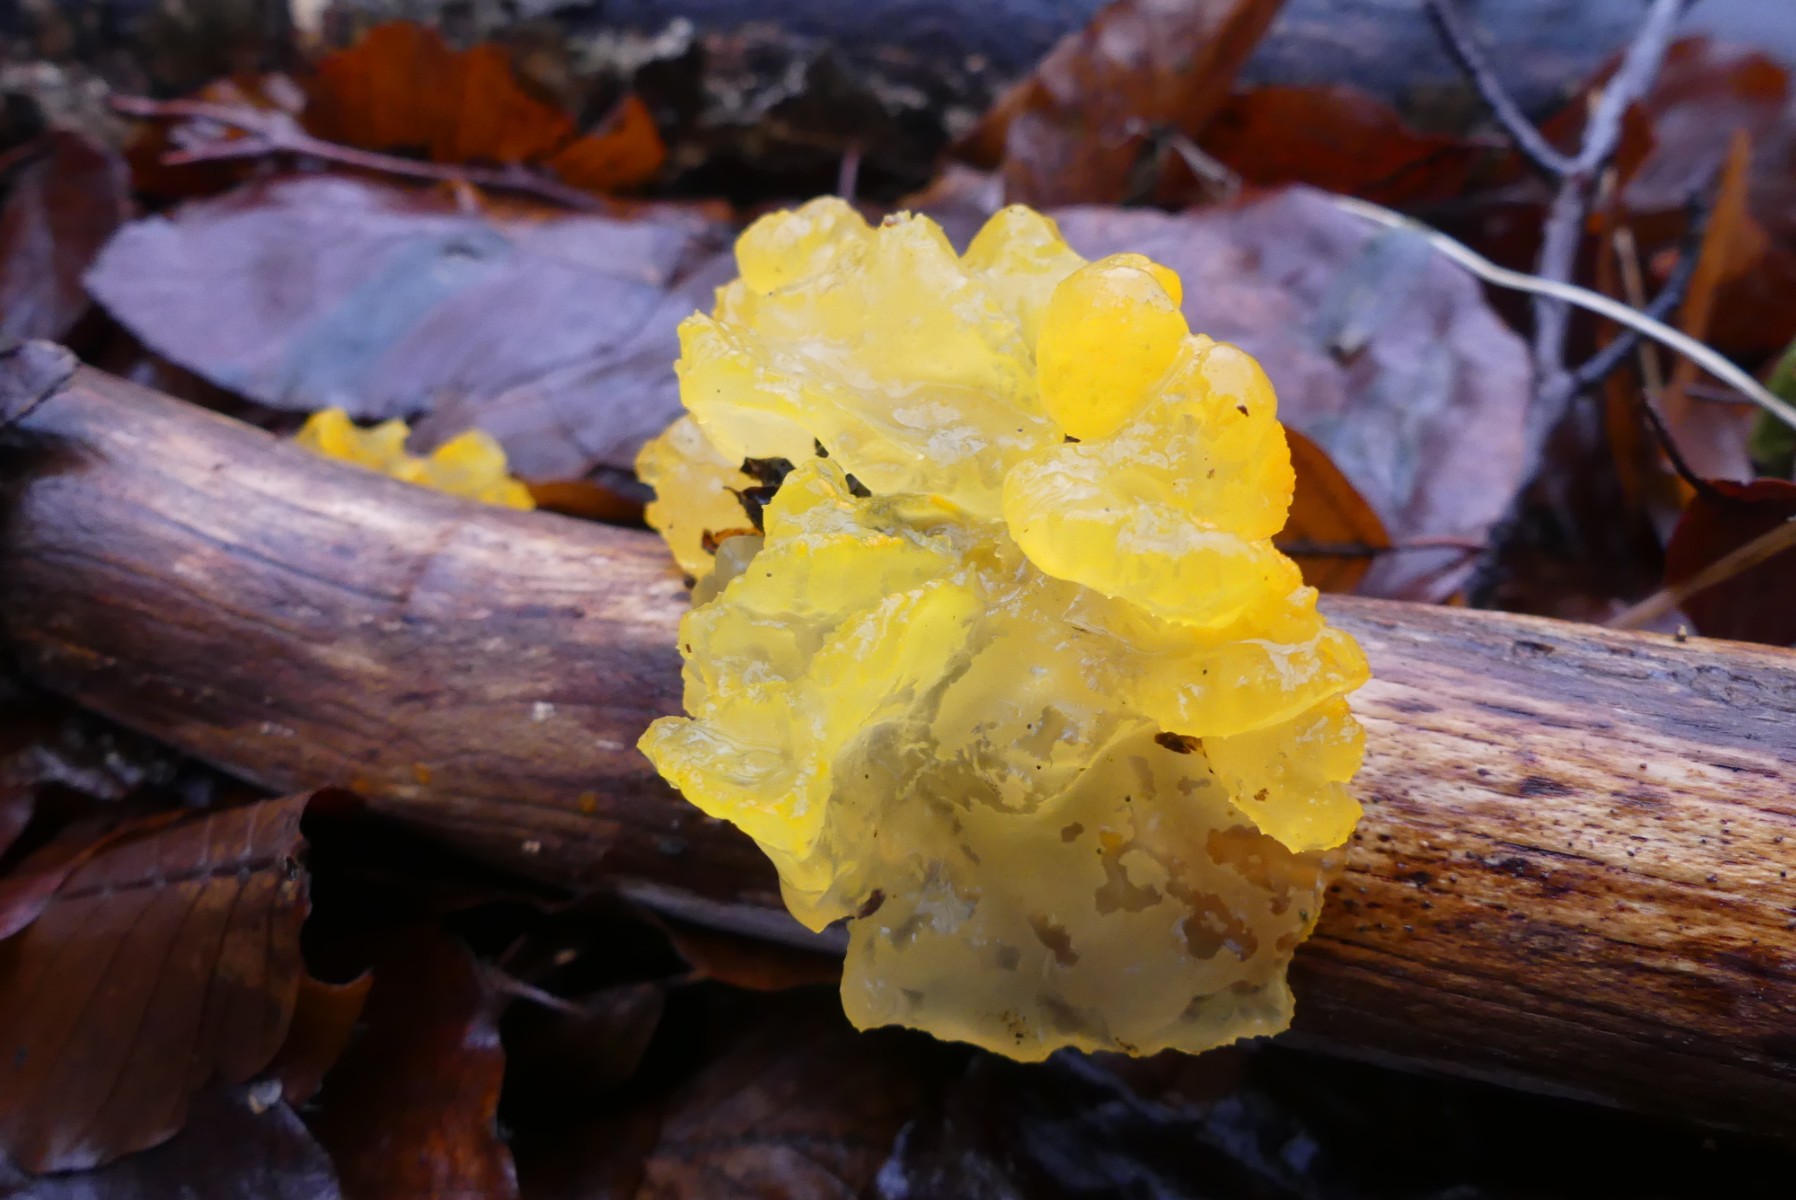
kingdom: Fungi
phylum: Basidiomycota
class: Tremellomycetes
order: Tremellales
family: Tremellaceae
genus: Tremella
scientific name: Tremella mesenterica
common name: gul bævresvamp
